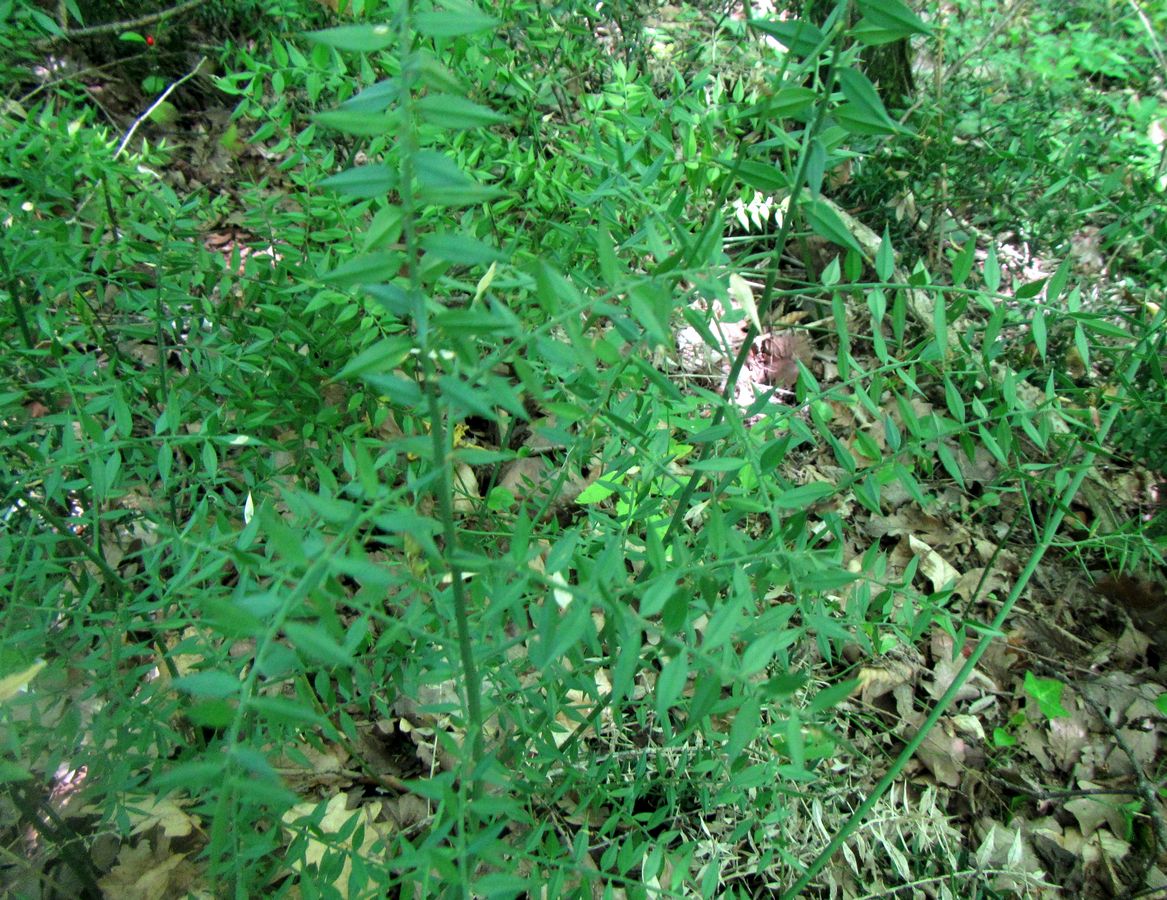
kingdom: Plantae
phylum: Tracheophyta
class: Liliopsida
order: Liliales
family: Liliaceae
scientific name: Liliaceae
